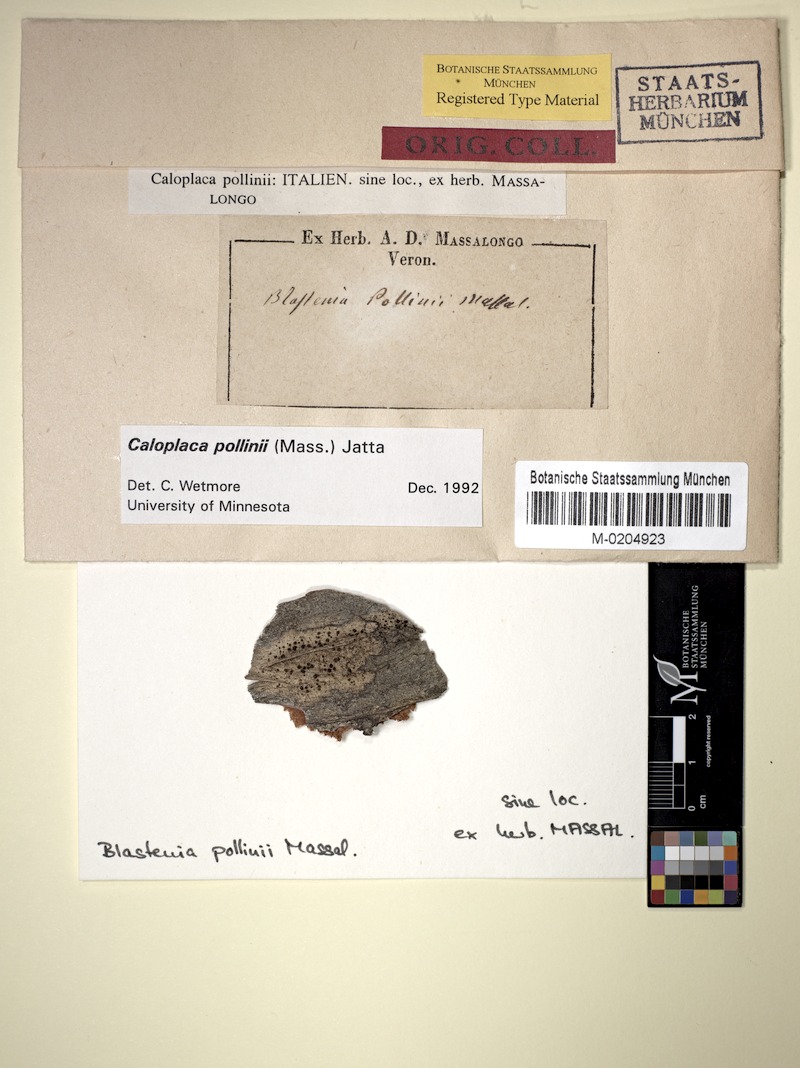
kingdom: Fungi
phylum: Ascomycota
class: Lecanoromycetes
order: Teloschistales
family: Teloschistaceae
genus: Huneckia
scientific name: Huneckia pollinii
